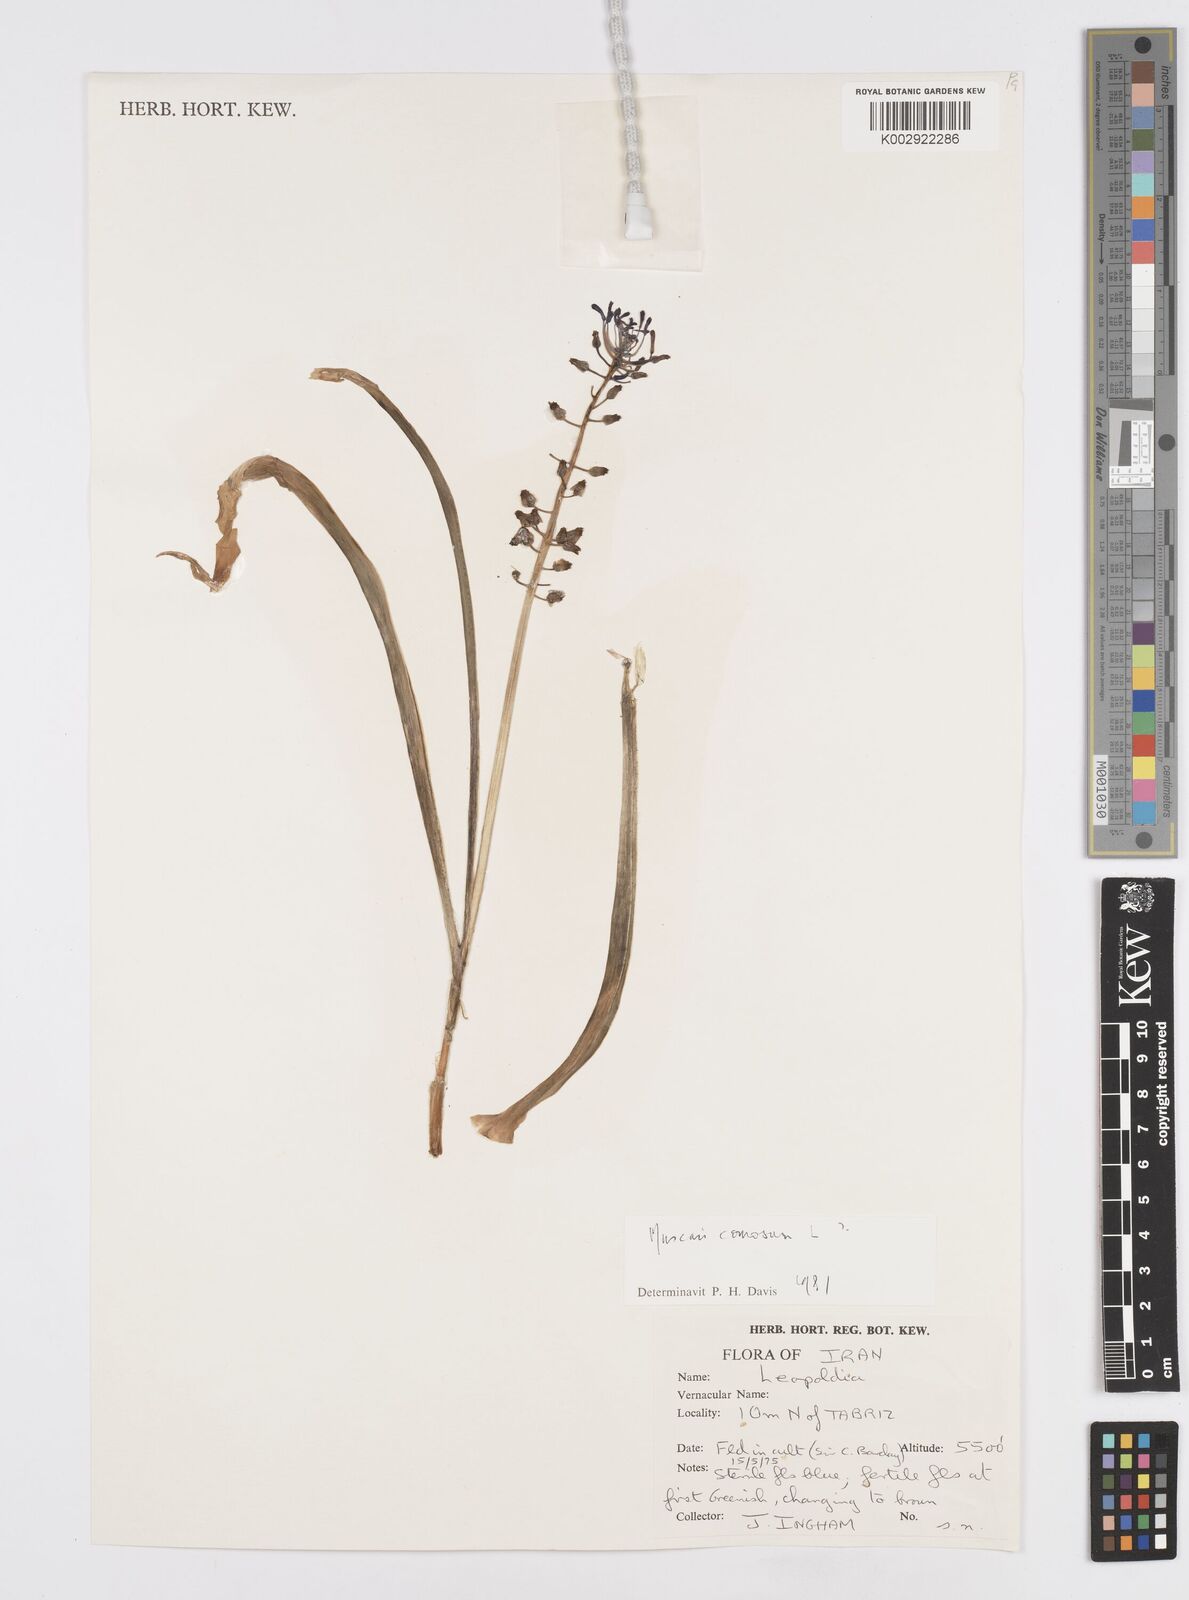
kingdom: Plantae
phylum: Tracheophyta
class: Liliopsida
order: Asparagales
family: Asparagaceae
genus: Muscari
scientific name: Muscari comosum
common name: Tassel hyacinth
